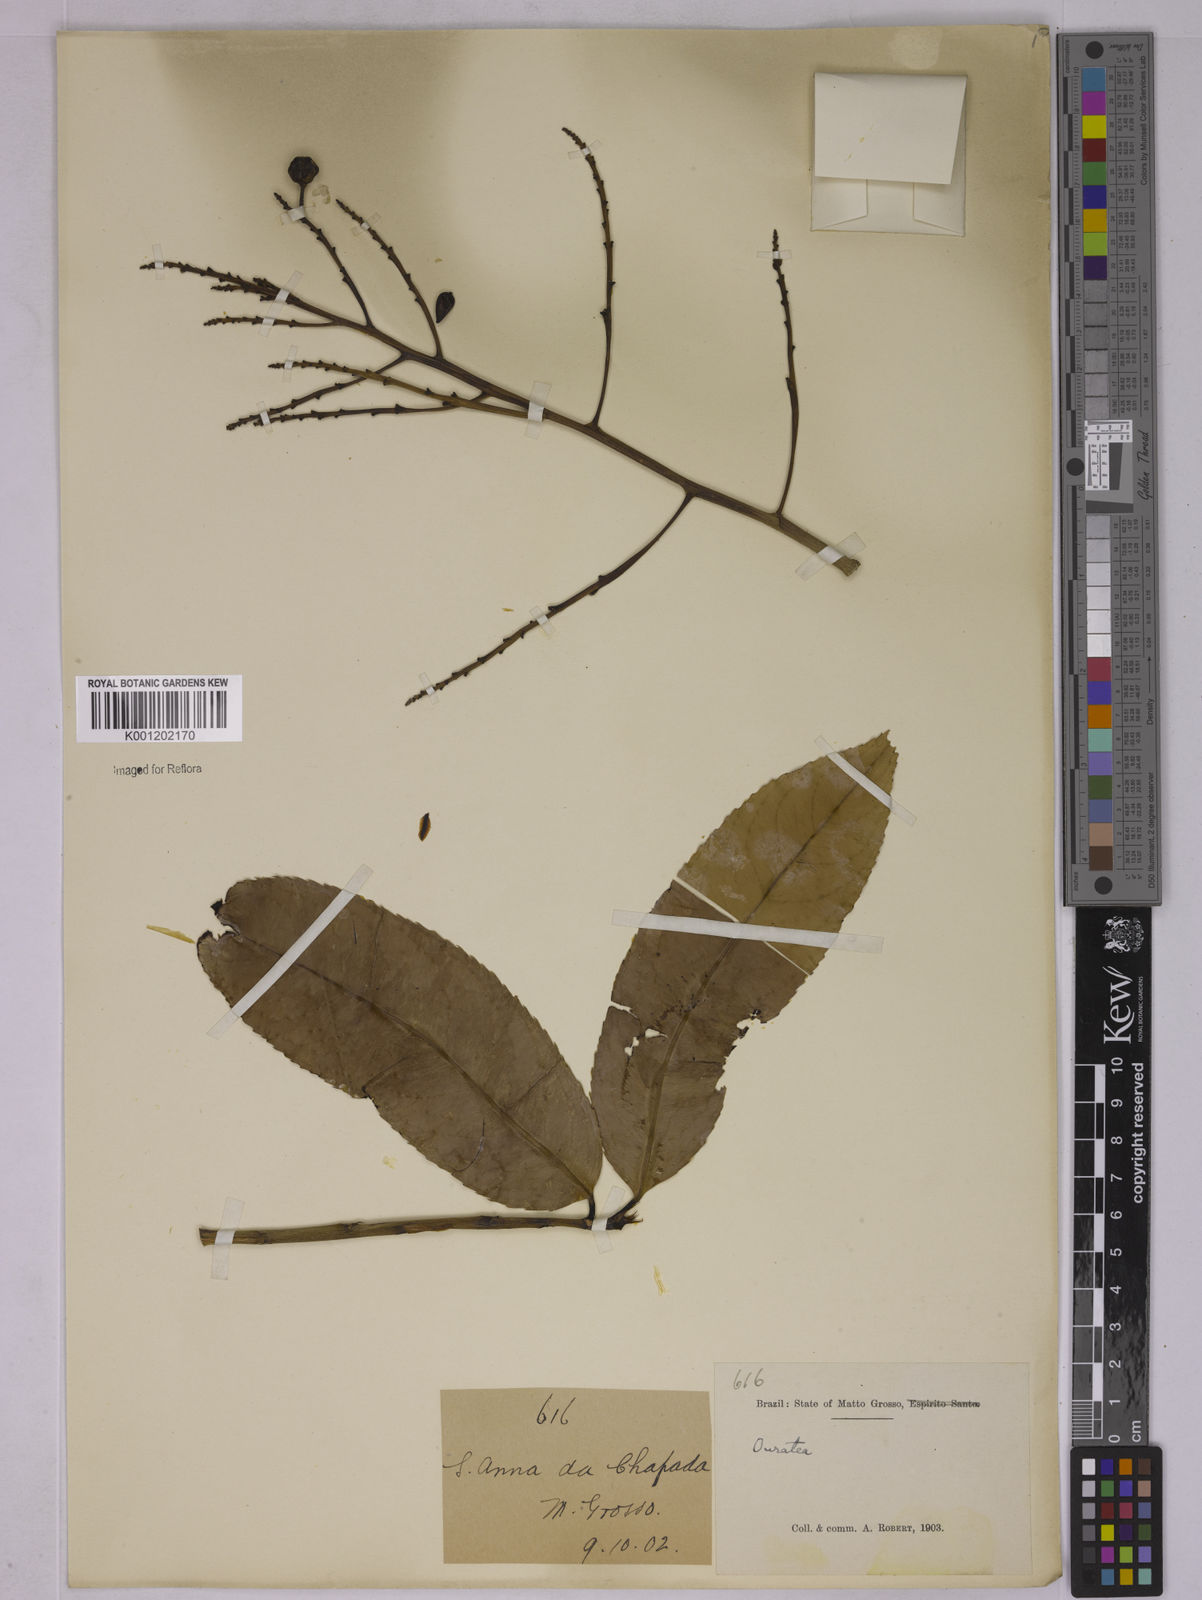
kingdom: Plantae
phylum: Tracheophyta
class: Magnoliopsida
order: Malpighiales
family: Ochnaceae
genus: Ouratea
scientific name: Ouratea
